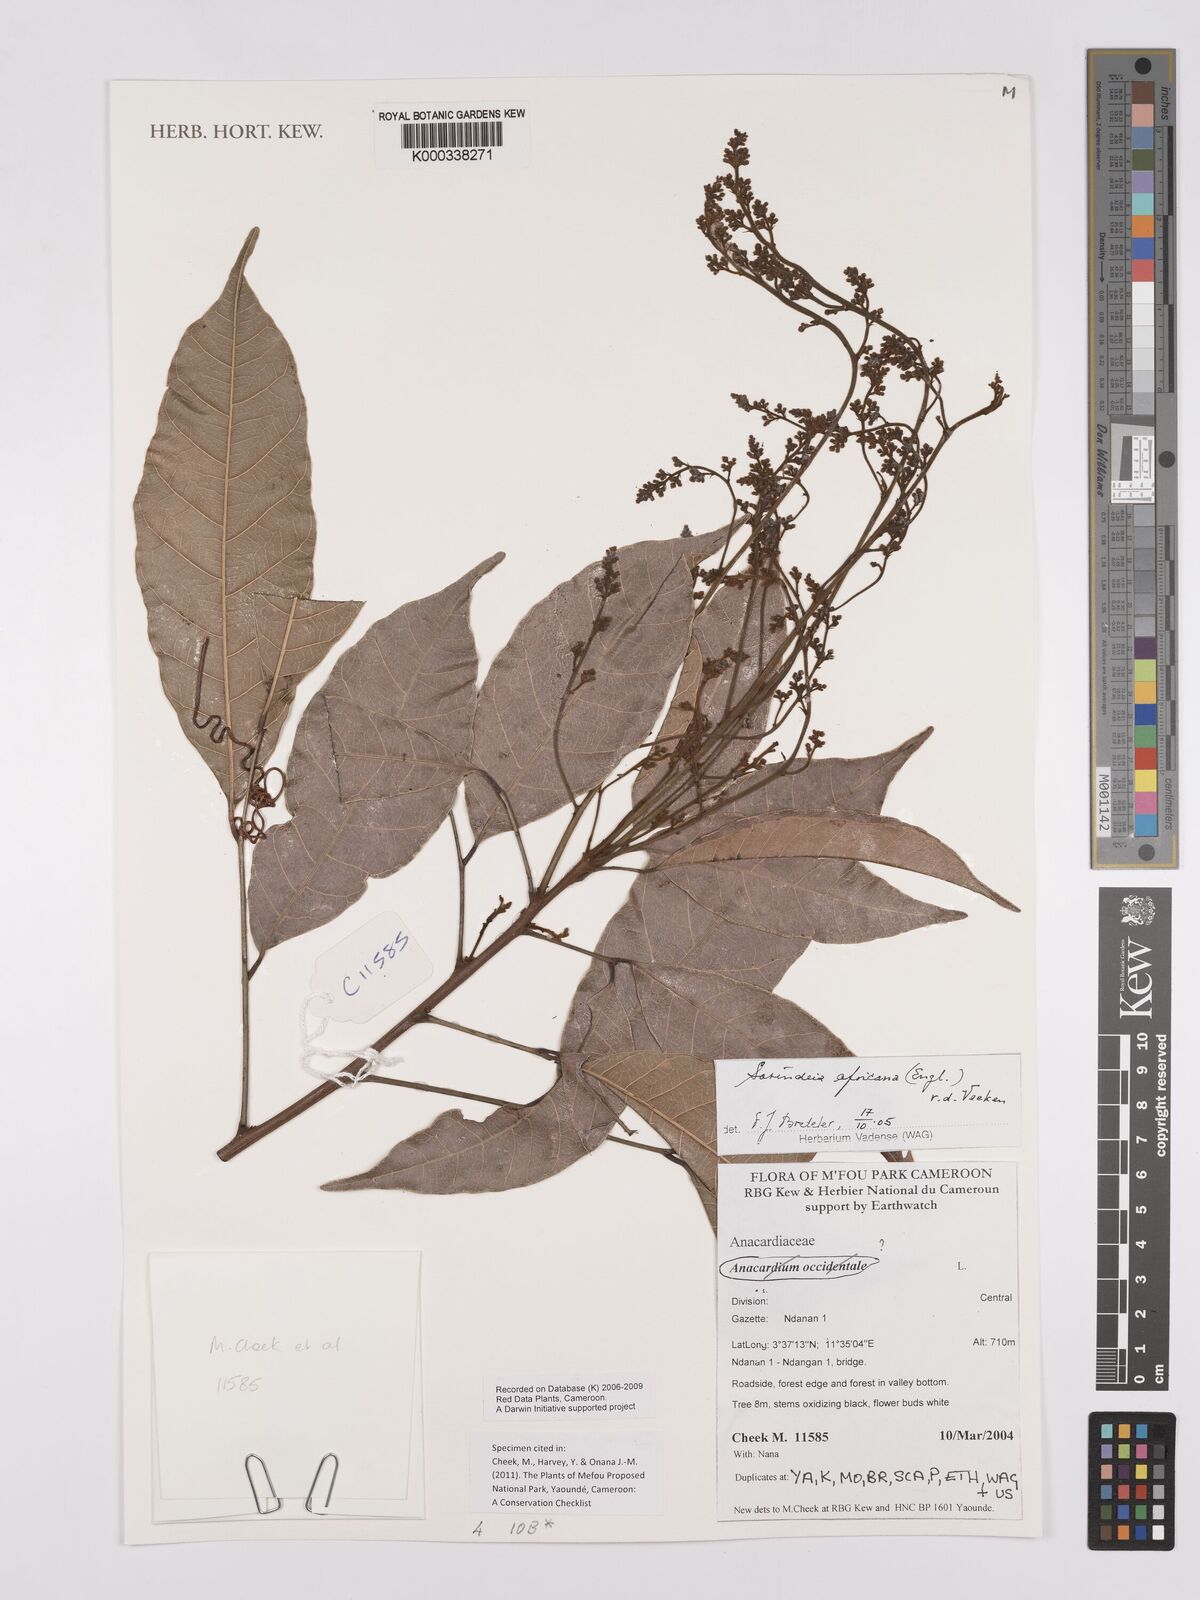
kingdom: Plantae
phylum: Tracheophyta
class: Magnoliopsida
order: Sapindales
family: Anacardiaceae
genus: Sorindeia
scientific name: Sorindeia africana
